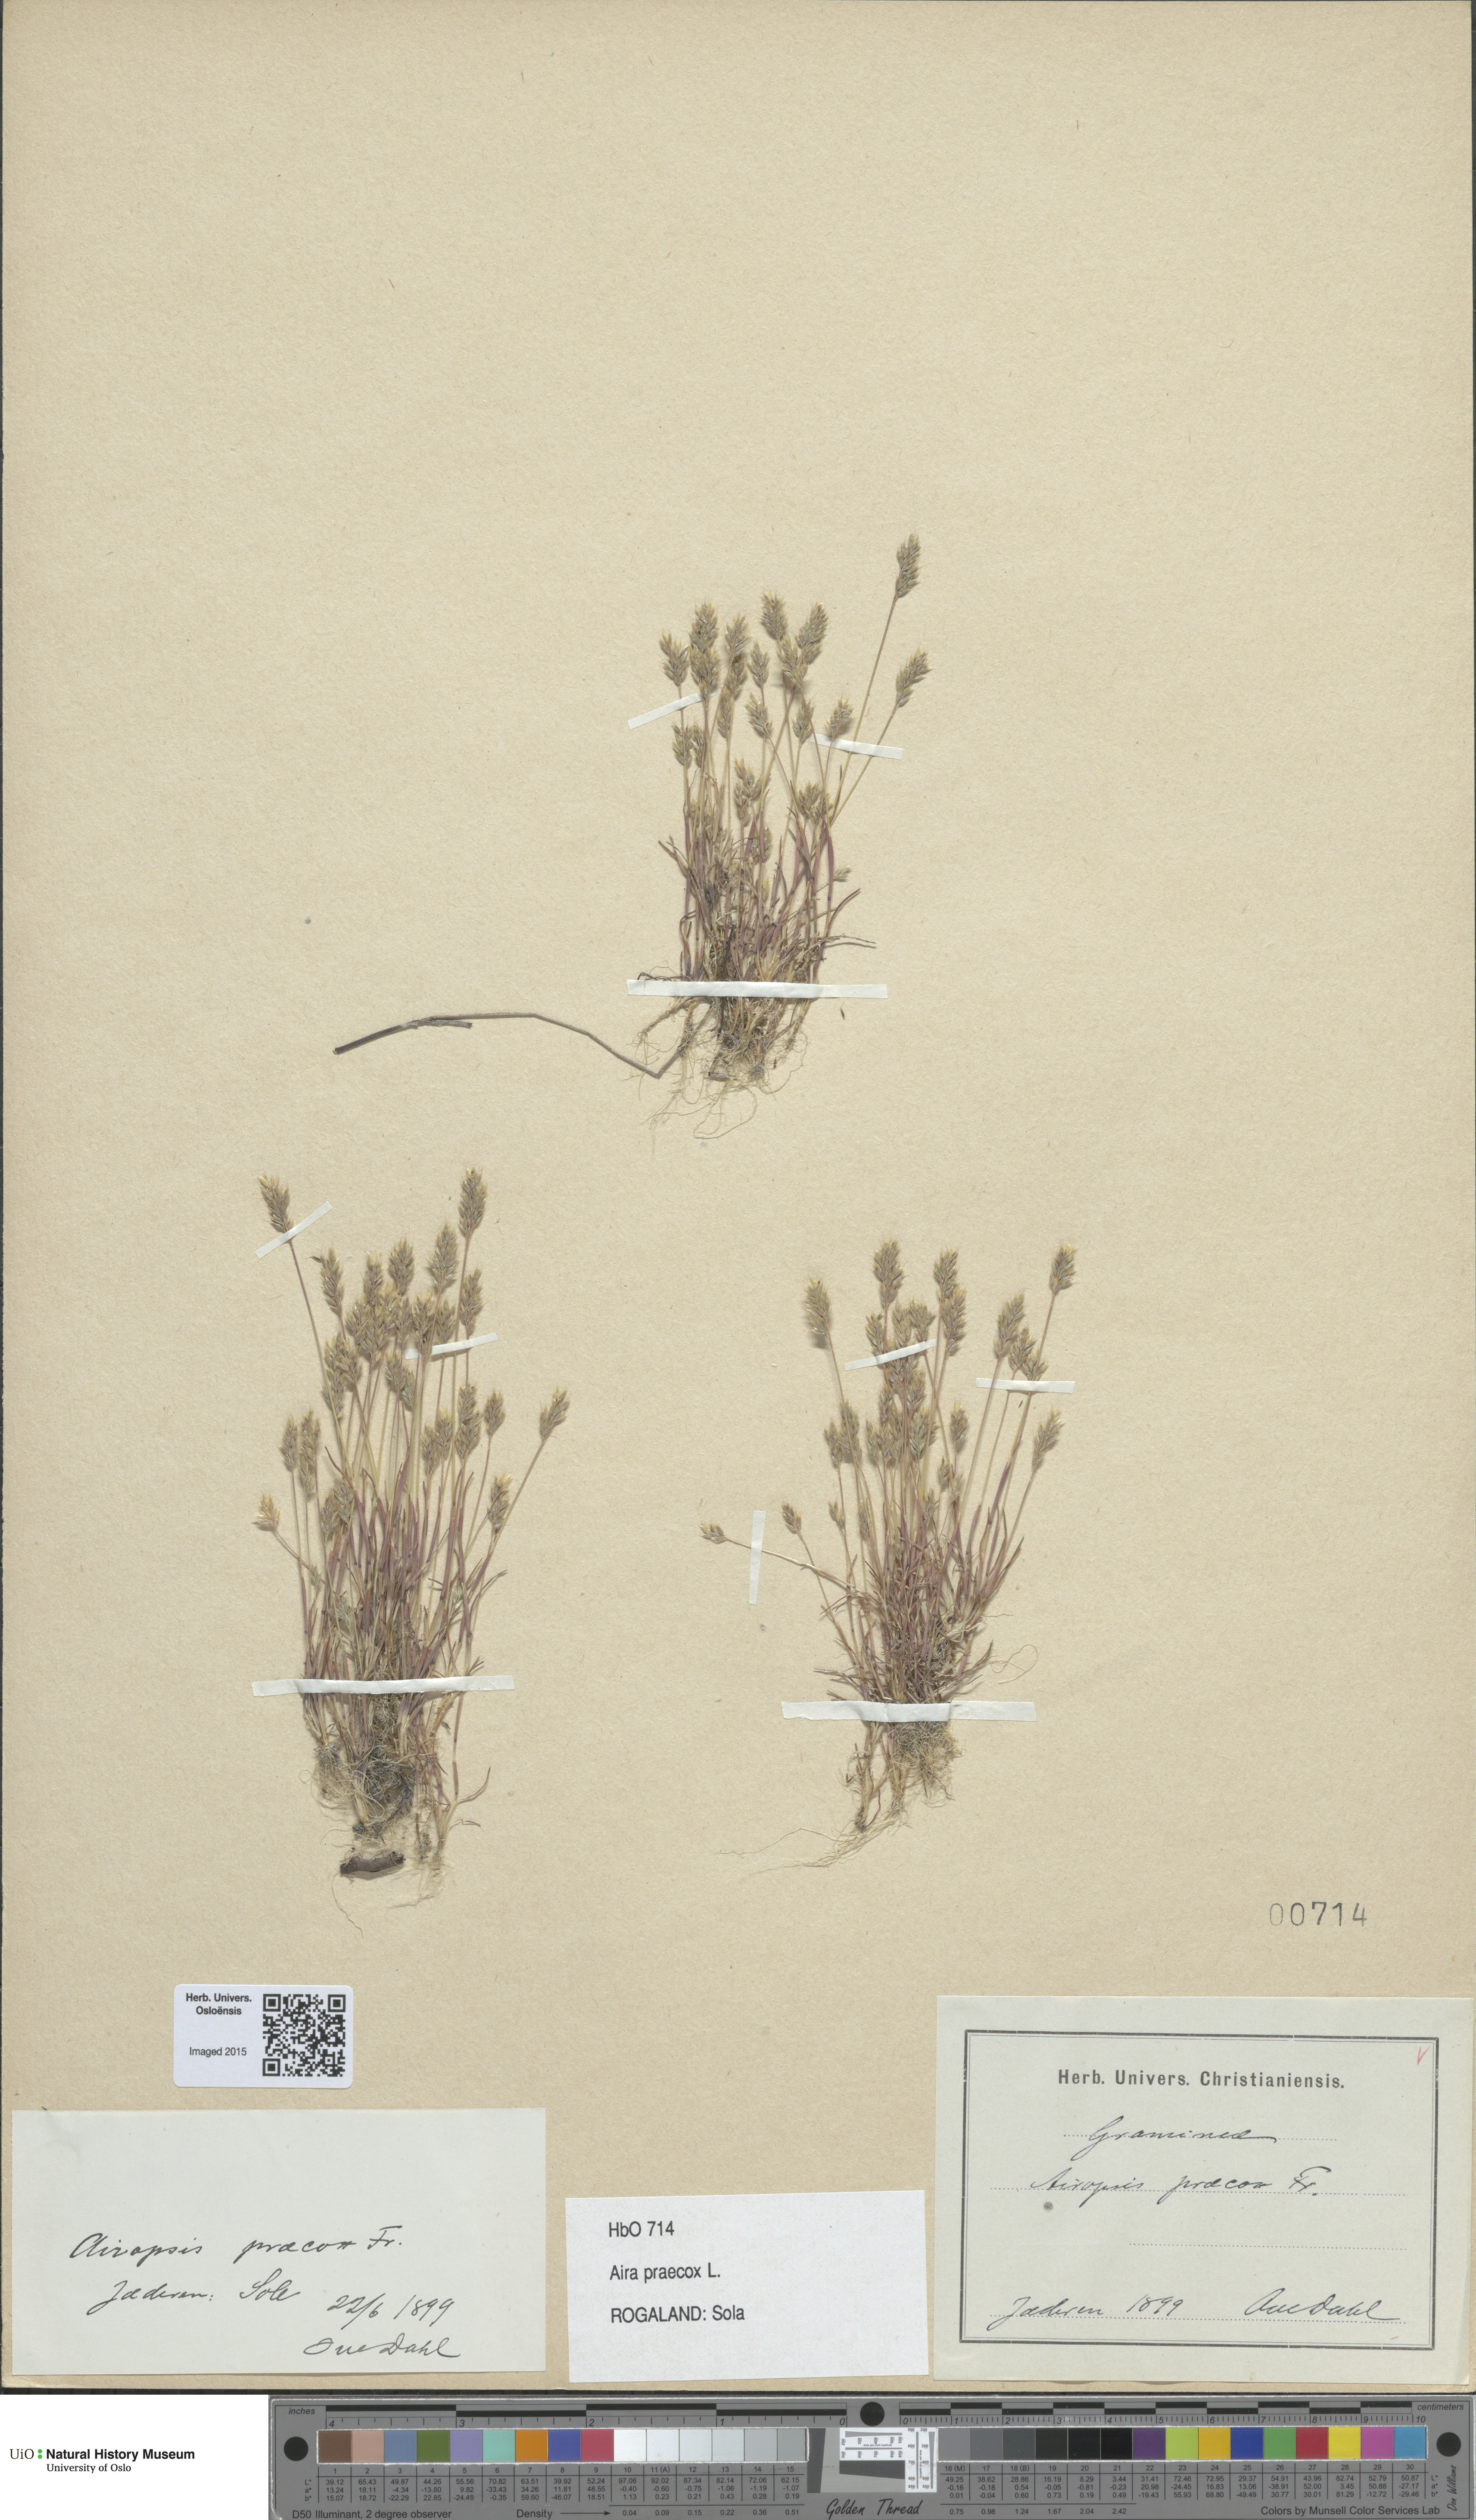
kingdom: Plantae
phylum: Tracheophyta
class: Liliopsida
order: Poales
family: Poaceae
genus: Aira
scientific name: Aira praecox
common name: Early hair-grass
